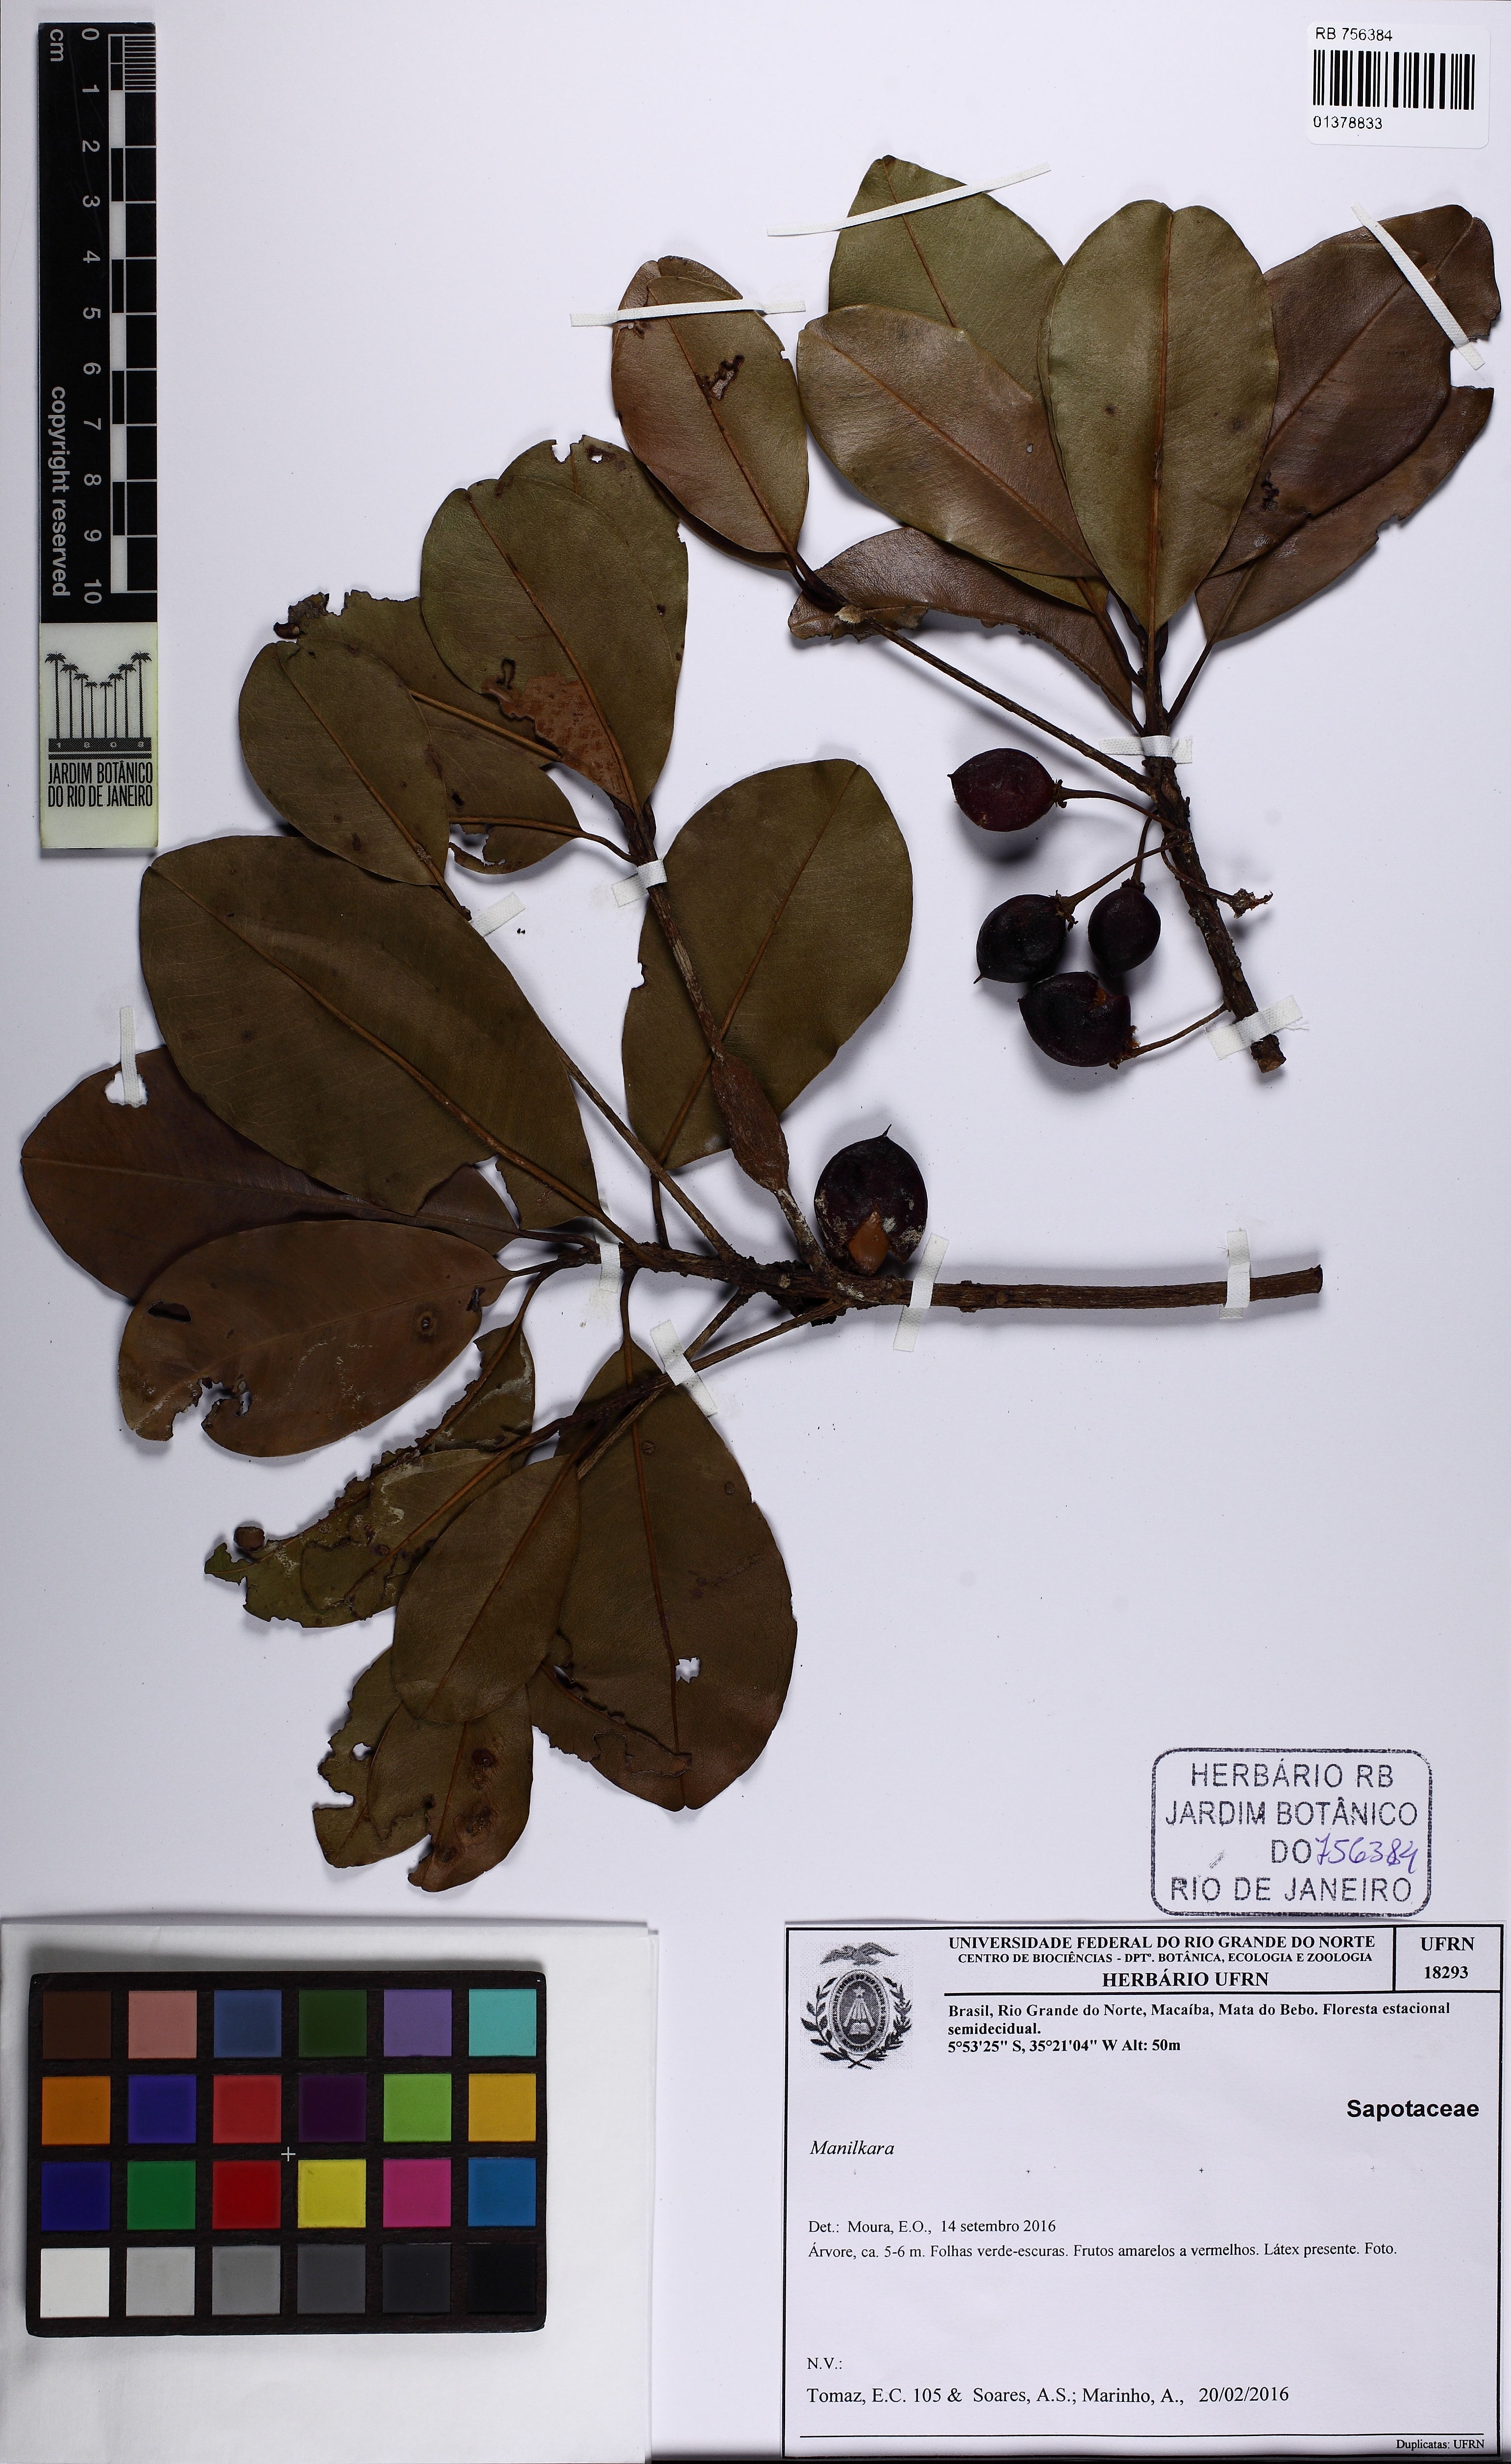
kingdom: Plantae
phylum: Tracheophyta
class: Magnoliopsida
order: Ericales
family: Sapotaceae
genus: Manilkara
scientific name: Manilkara
